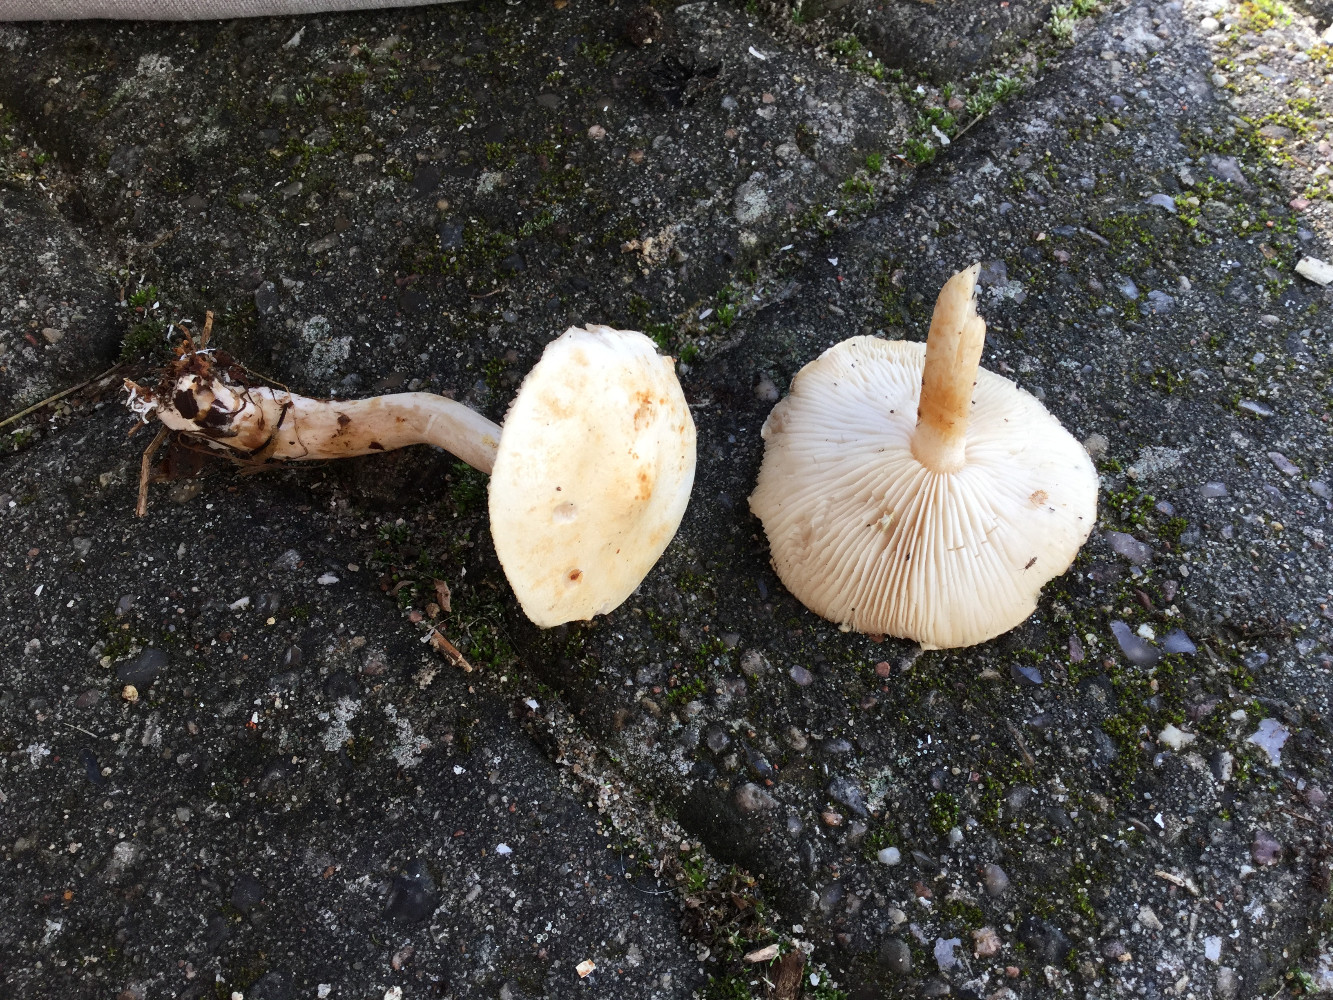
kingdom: Fungi
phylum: Basidiomycota
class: Agaricomycetes
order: Agaricales
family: Tricholomataceae
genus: Tricholoma
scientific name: Tricholoma stiparophyllum
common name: hvid ridderhat
